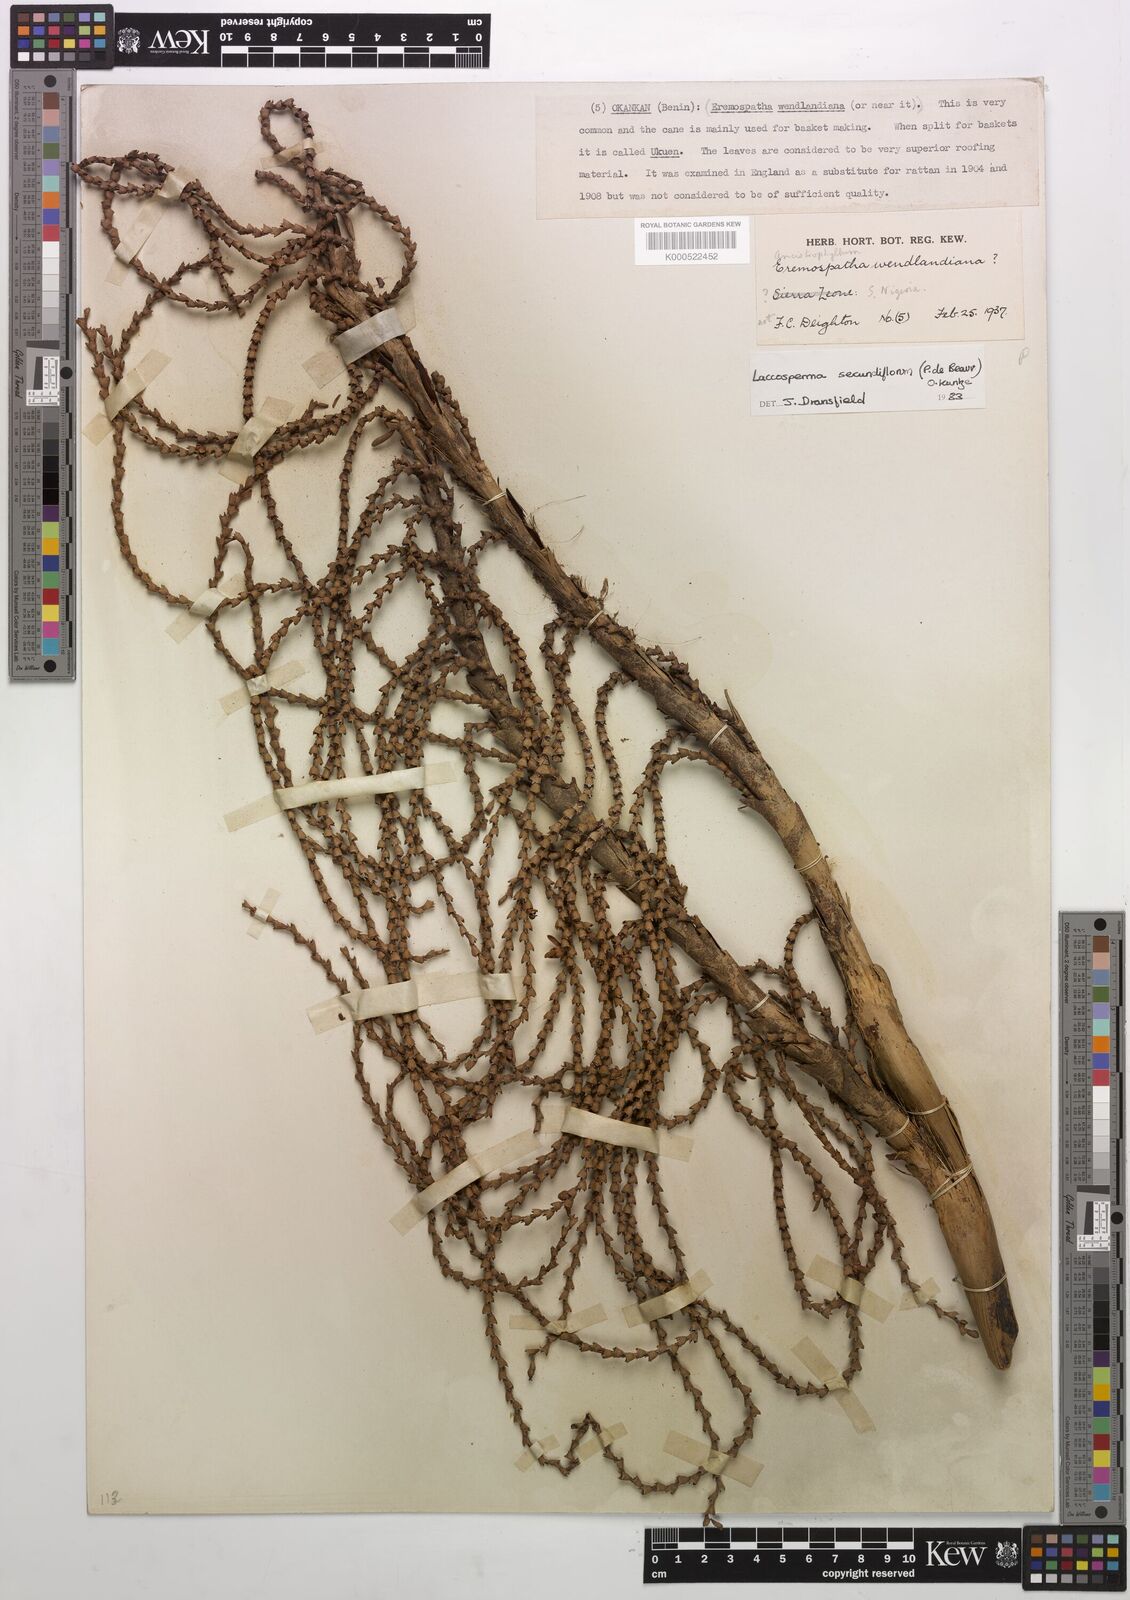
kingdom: Plantae
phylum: Tracheophyta
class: Liliopsida
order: Arecales
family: Arecaceae
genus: Laccosperma
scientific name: Laccosperma secundiflorum
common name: Rattan
